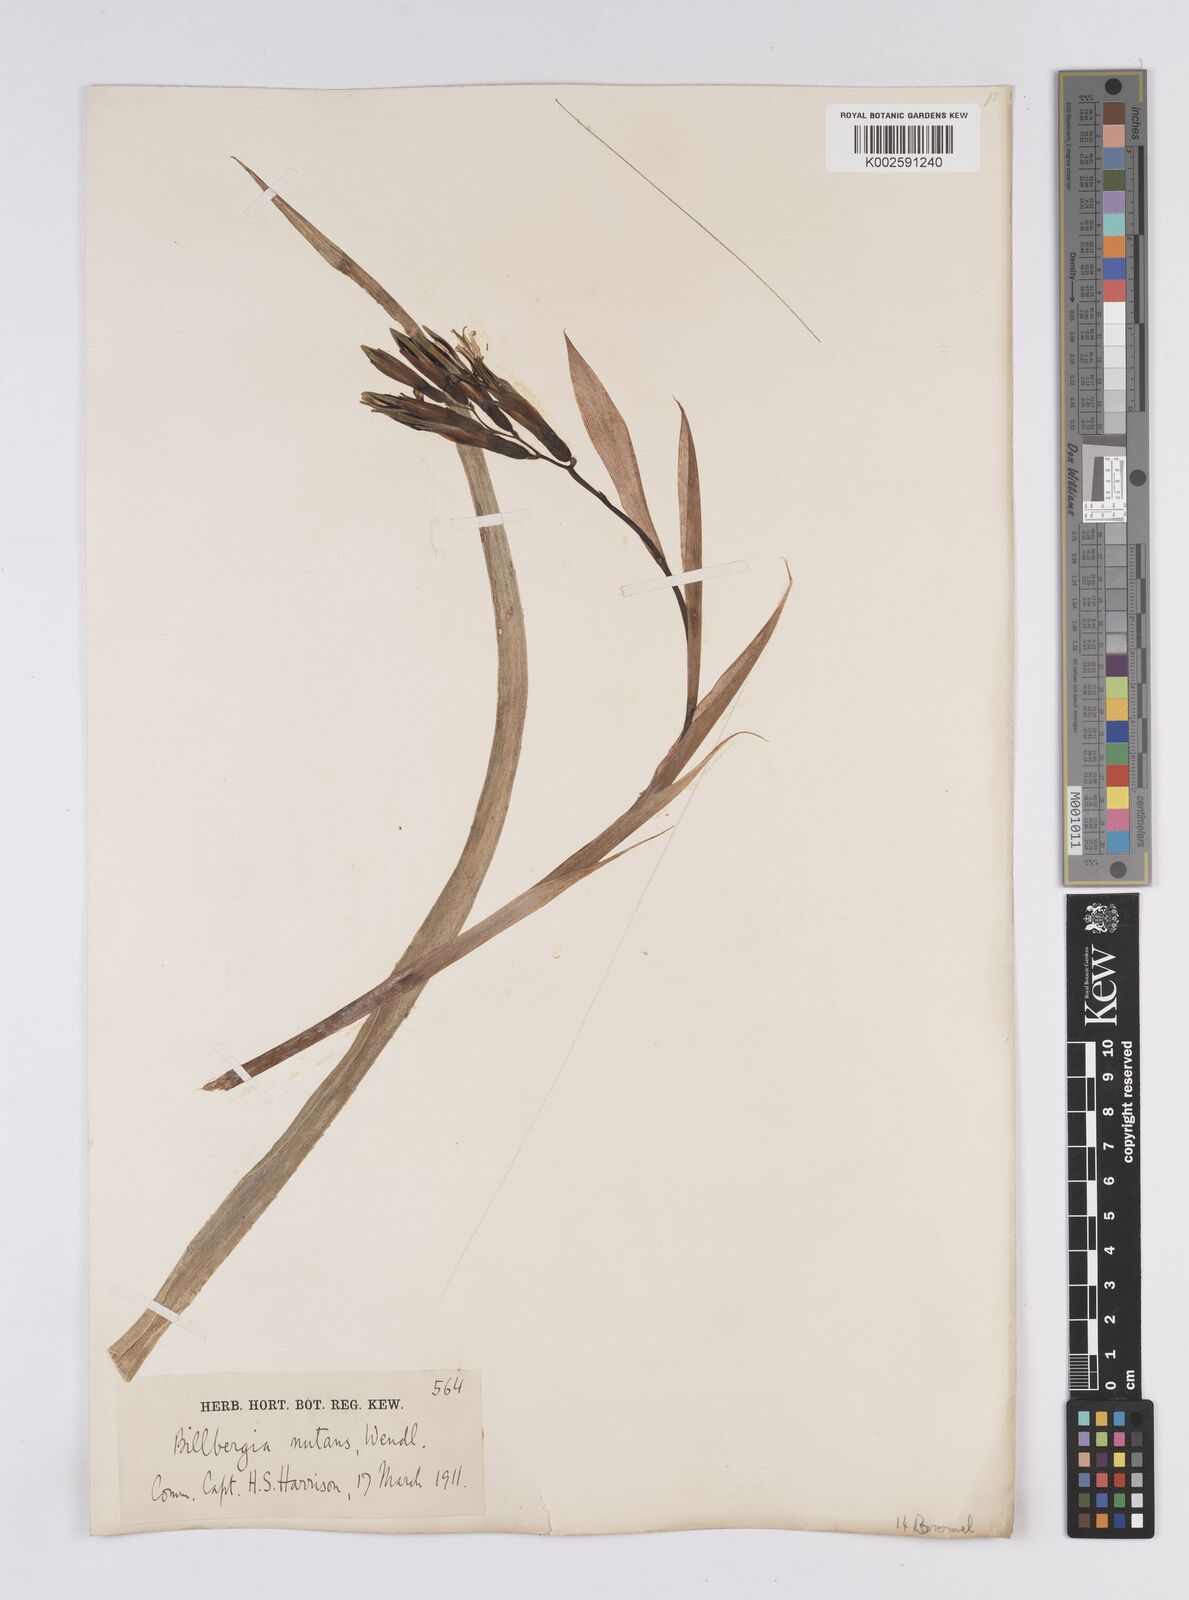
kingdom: Plantae
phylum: Tracheophyta
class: Liliopsida
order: Poales
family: Bromeliaceae
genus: Billbergia
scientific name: Billbergia nutans
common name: Friendship-plant
